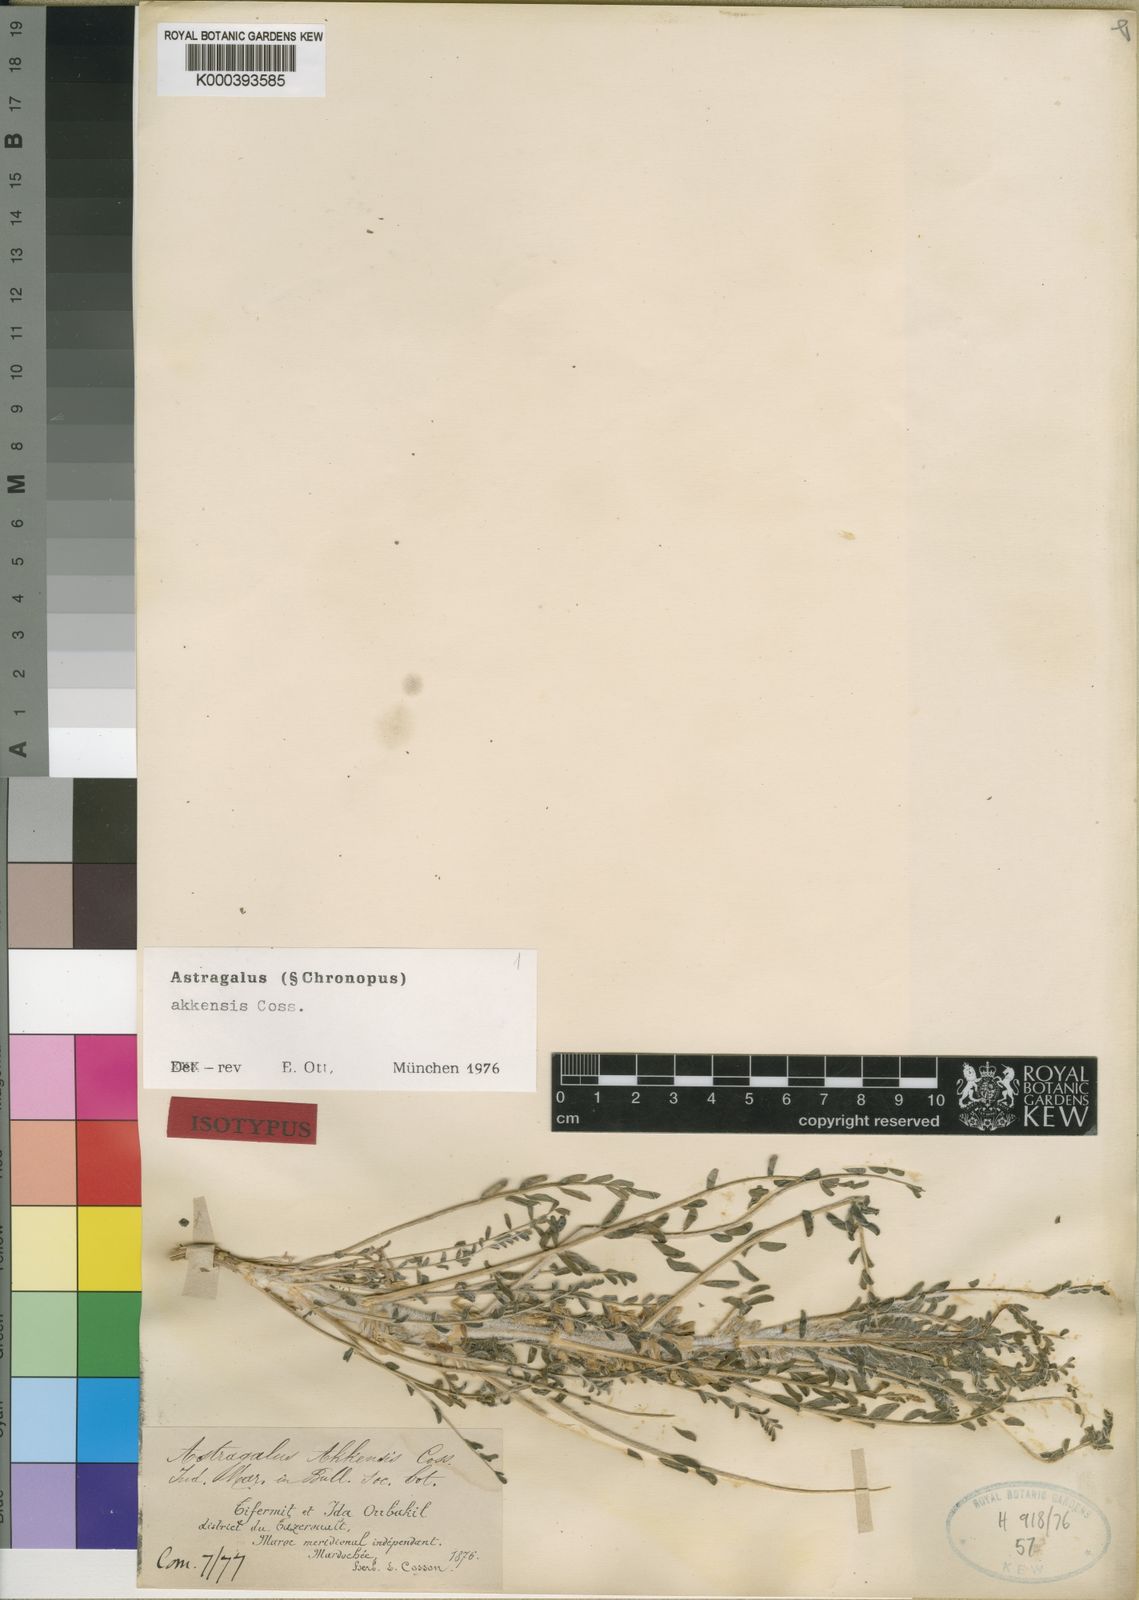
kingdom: Plantae
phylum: Tracheophyta
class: Magnoliopsida
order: Fabales
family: Fabaceae
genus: Astragalus
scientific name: Astragalus akkensis
